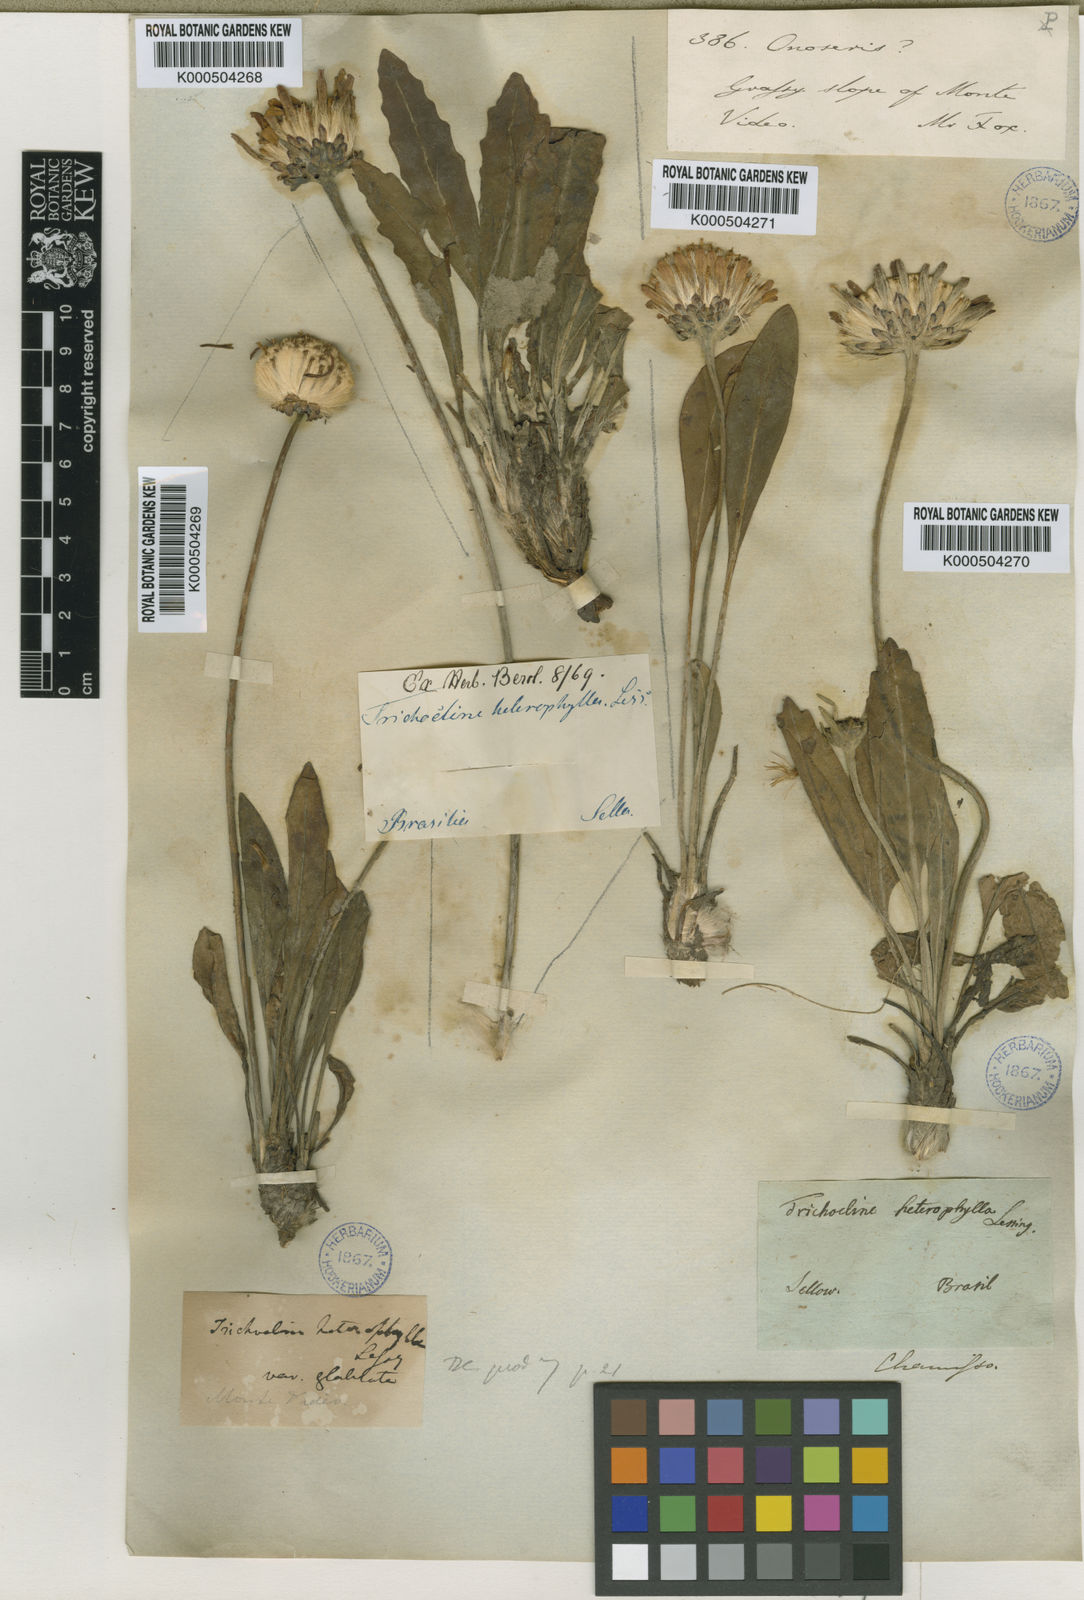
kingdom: Plantae
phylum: Tracheophyta
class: Magnoliopsida
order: Asterales
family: Asteraceae
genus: Trichocline
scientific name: Trichocline heterophylla
